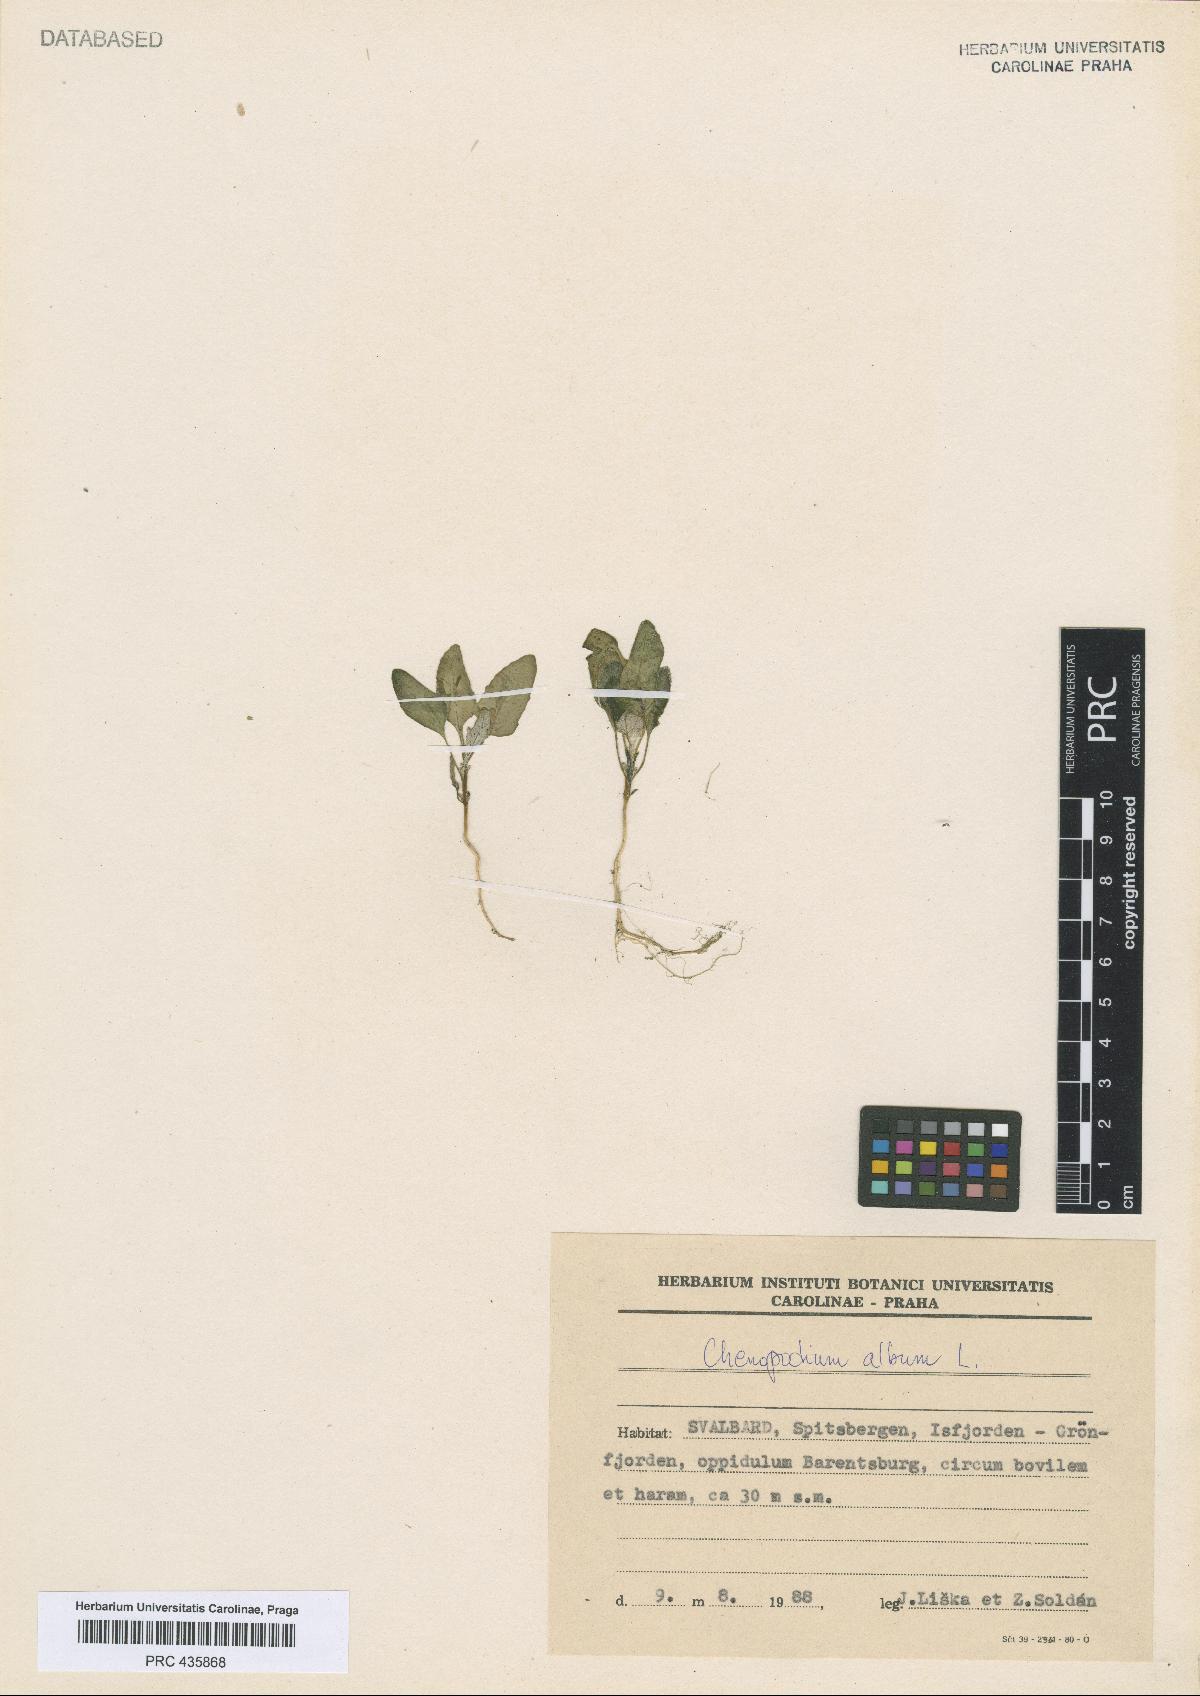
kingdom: Plantae
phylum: Tracheophyta
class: Magnoliopsida
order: Caryophyllales
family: Amaranthaceae
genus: Chenopodium
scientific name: Chenopodium album
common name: Fat-hen
